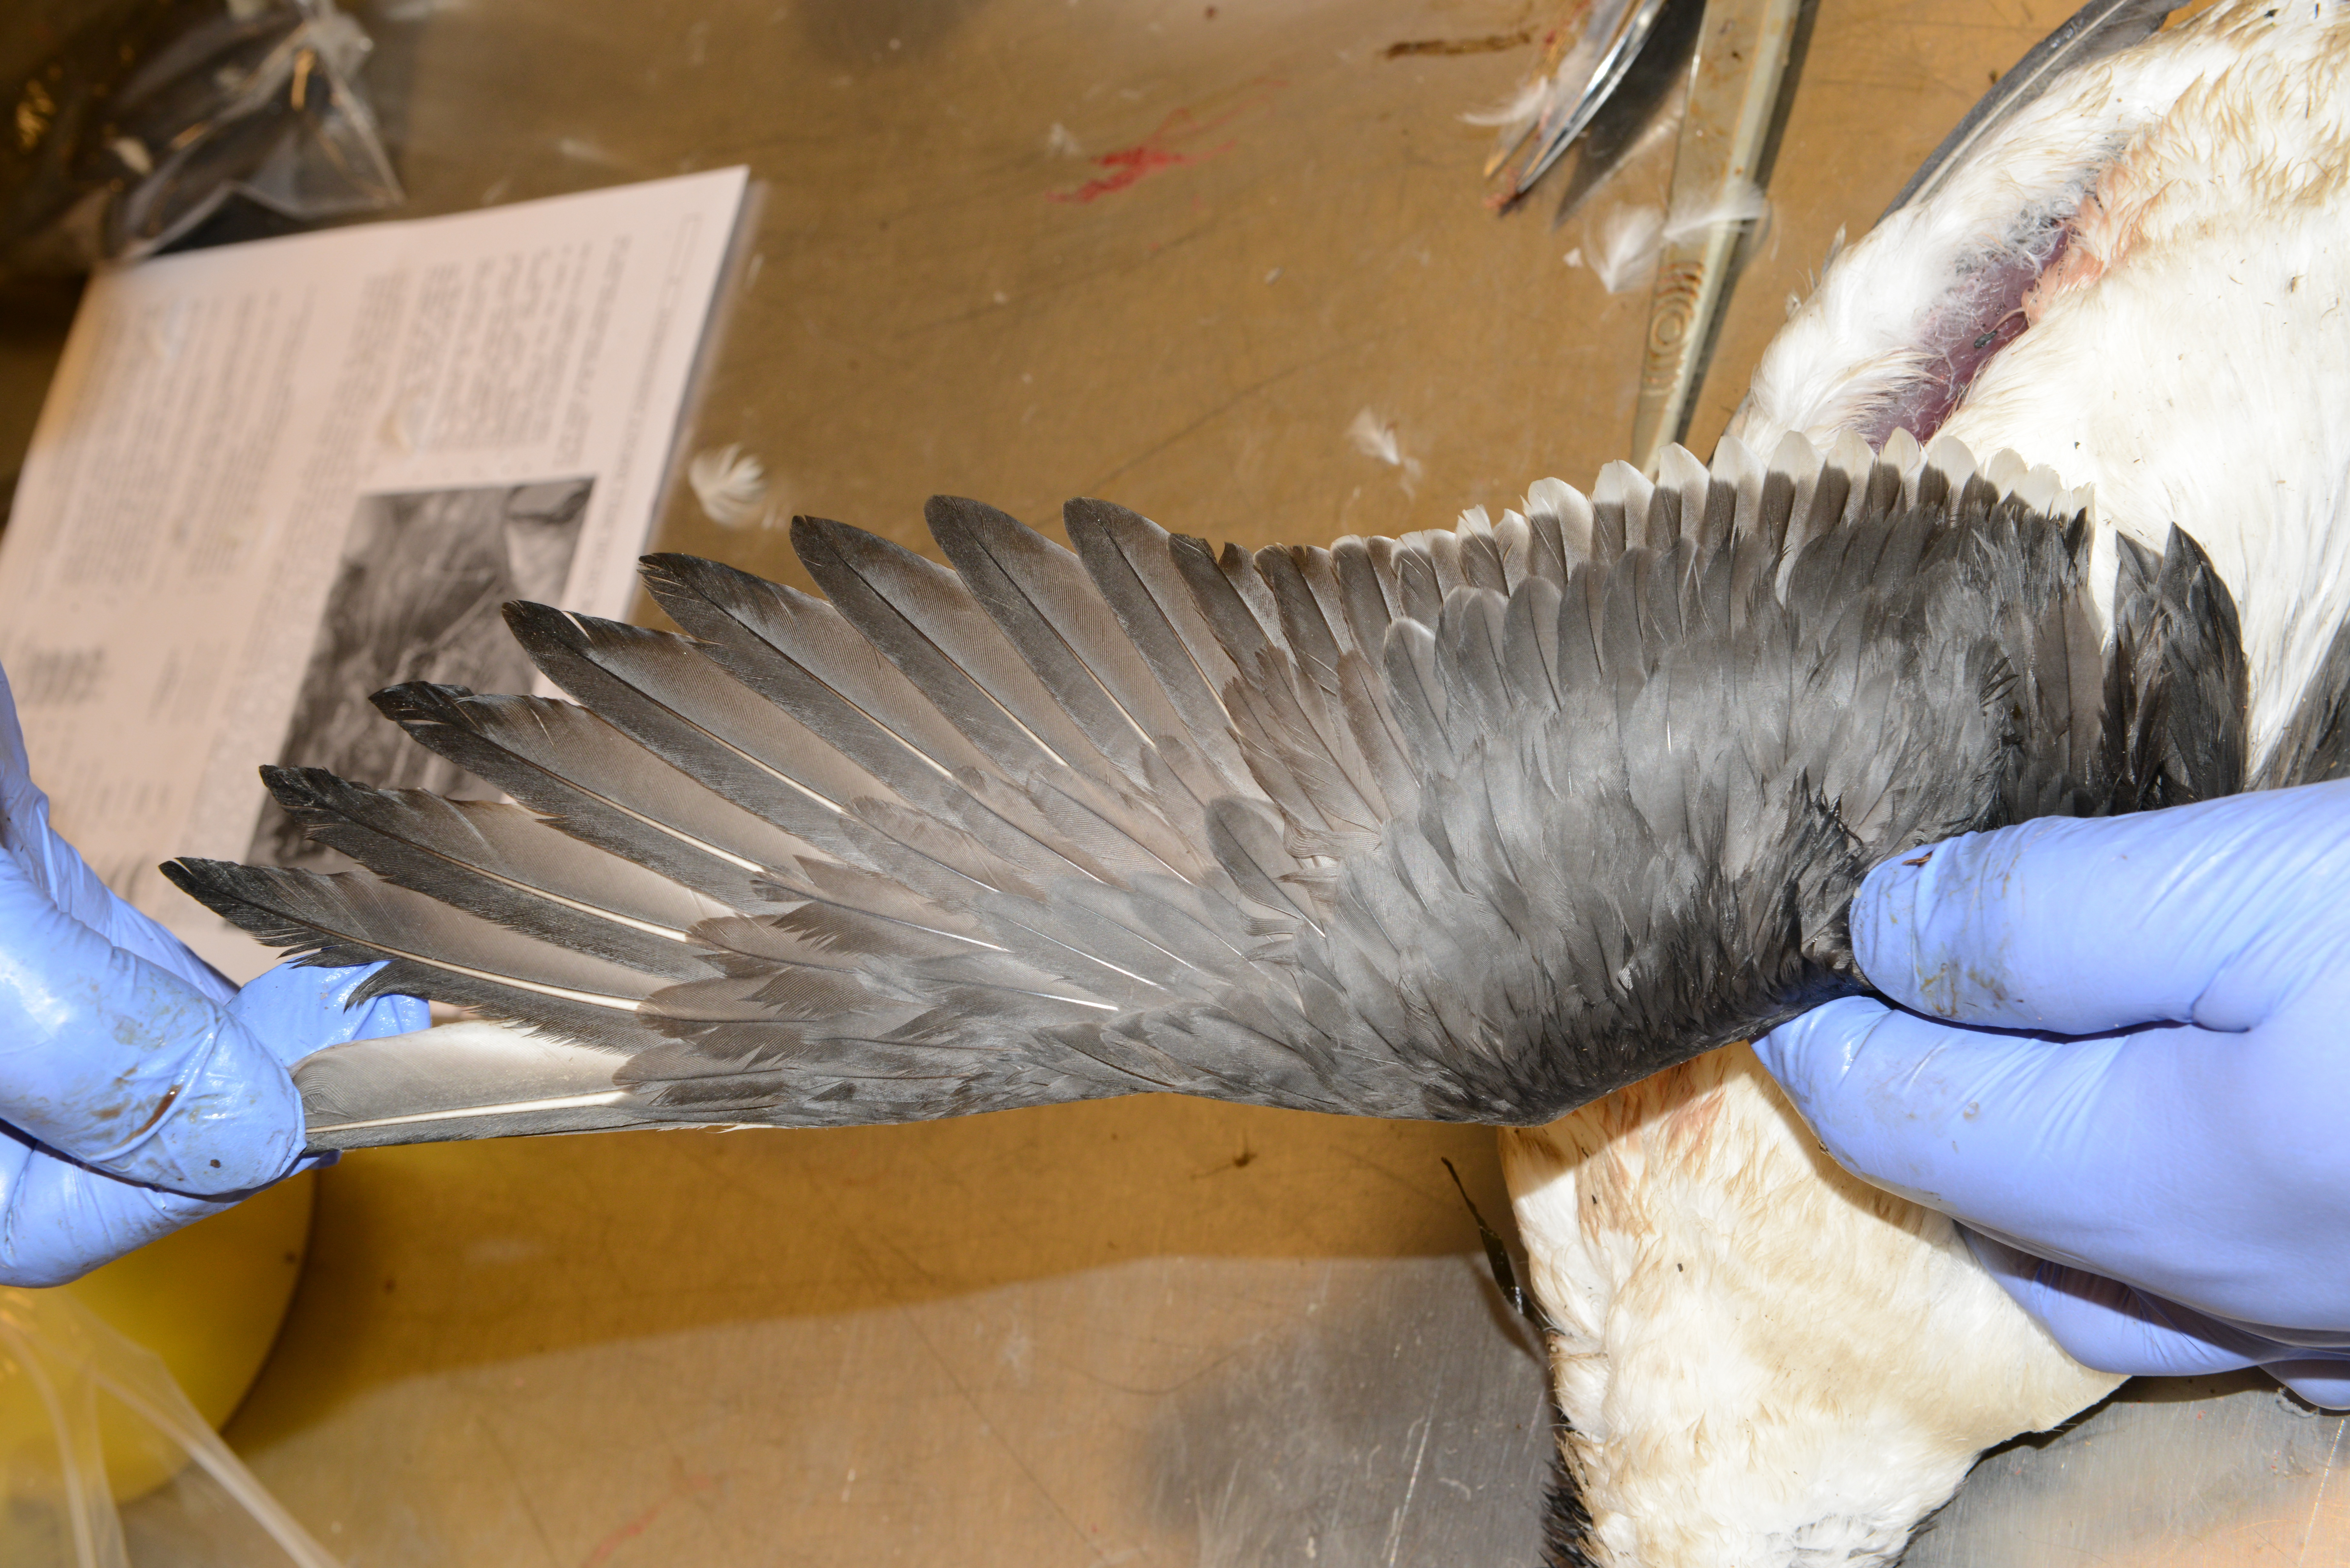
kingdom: Animalia
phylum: Chordata
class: Aves
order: Charadriiformes
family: Alcidae
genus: Uria
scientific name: Uria aalge
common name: Common murre
